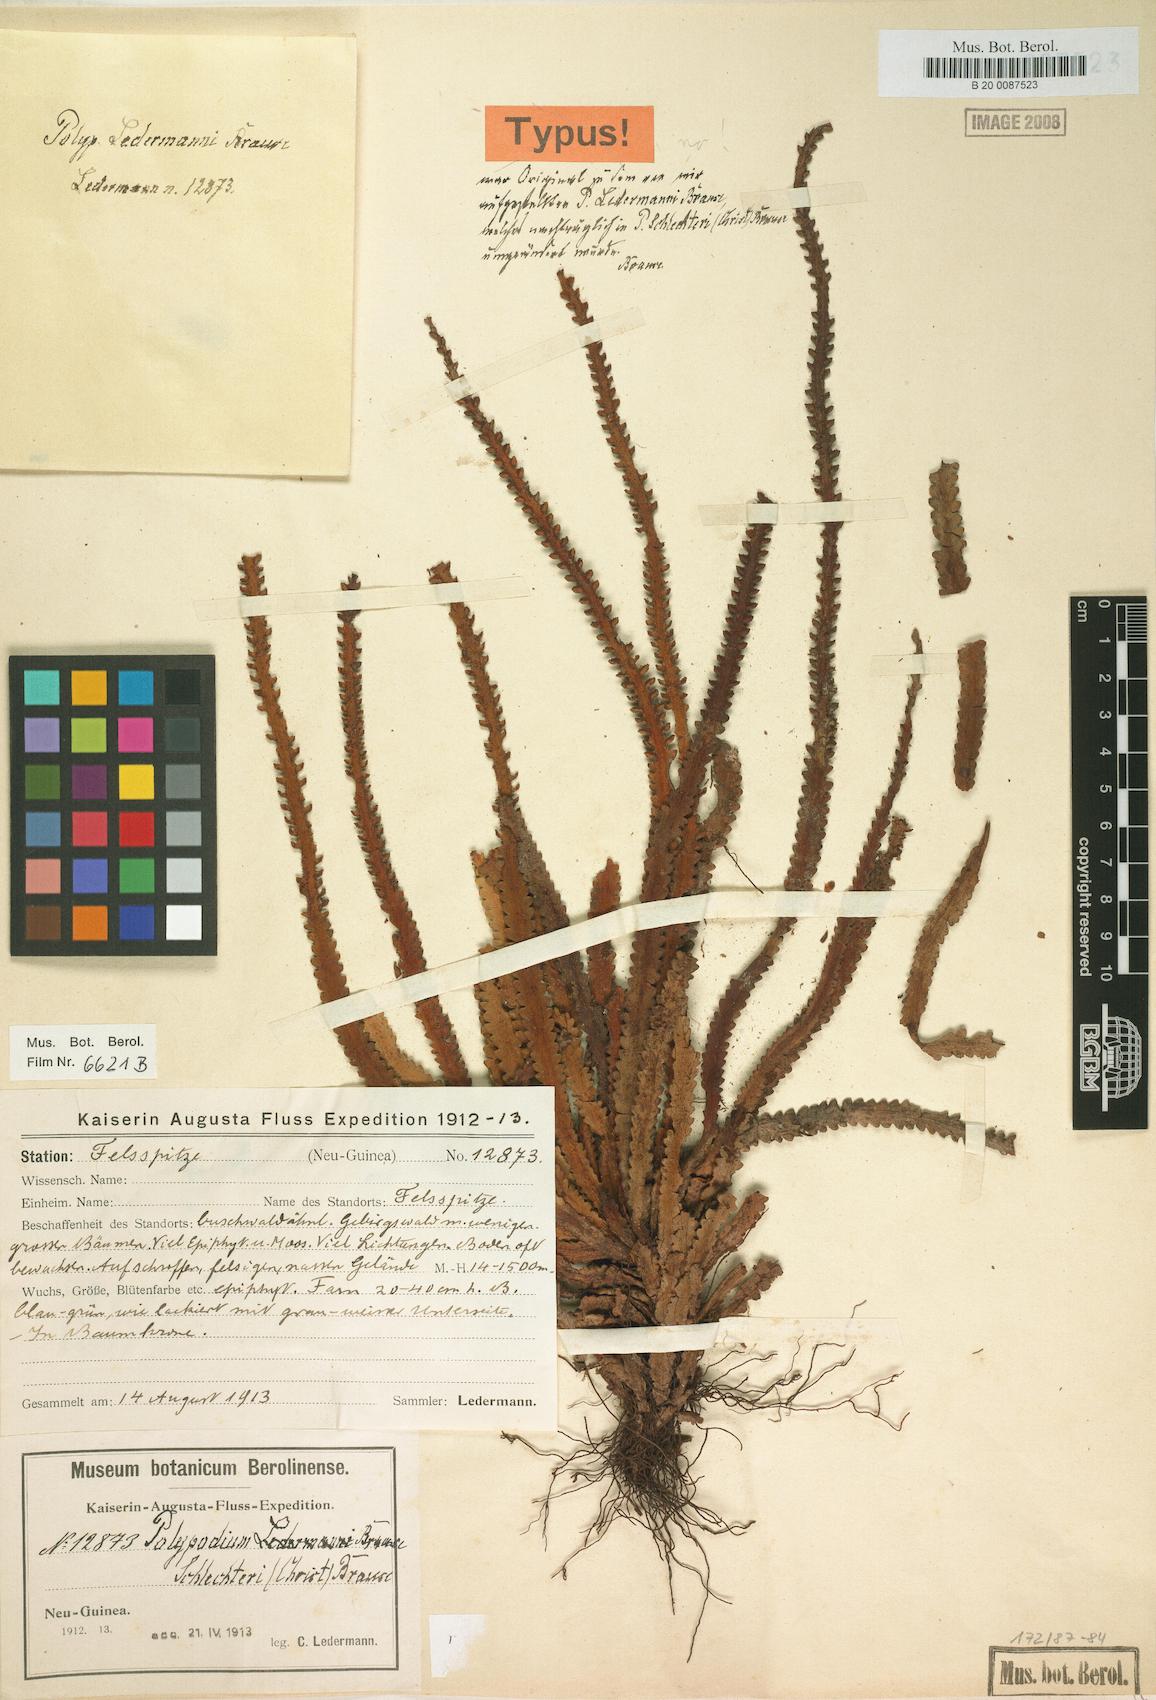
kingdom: Plantae
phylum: Tracheophyta
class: Polypodiopsida
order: Polypodiales
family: Polypodiaceae
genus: Acrosorus
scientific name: Acrosorus schlechteri
